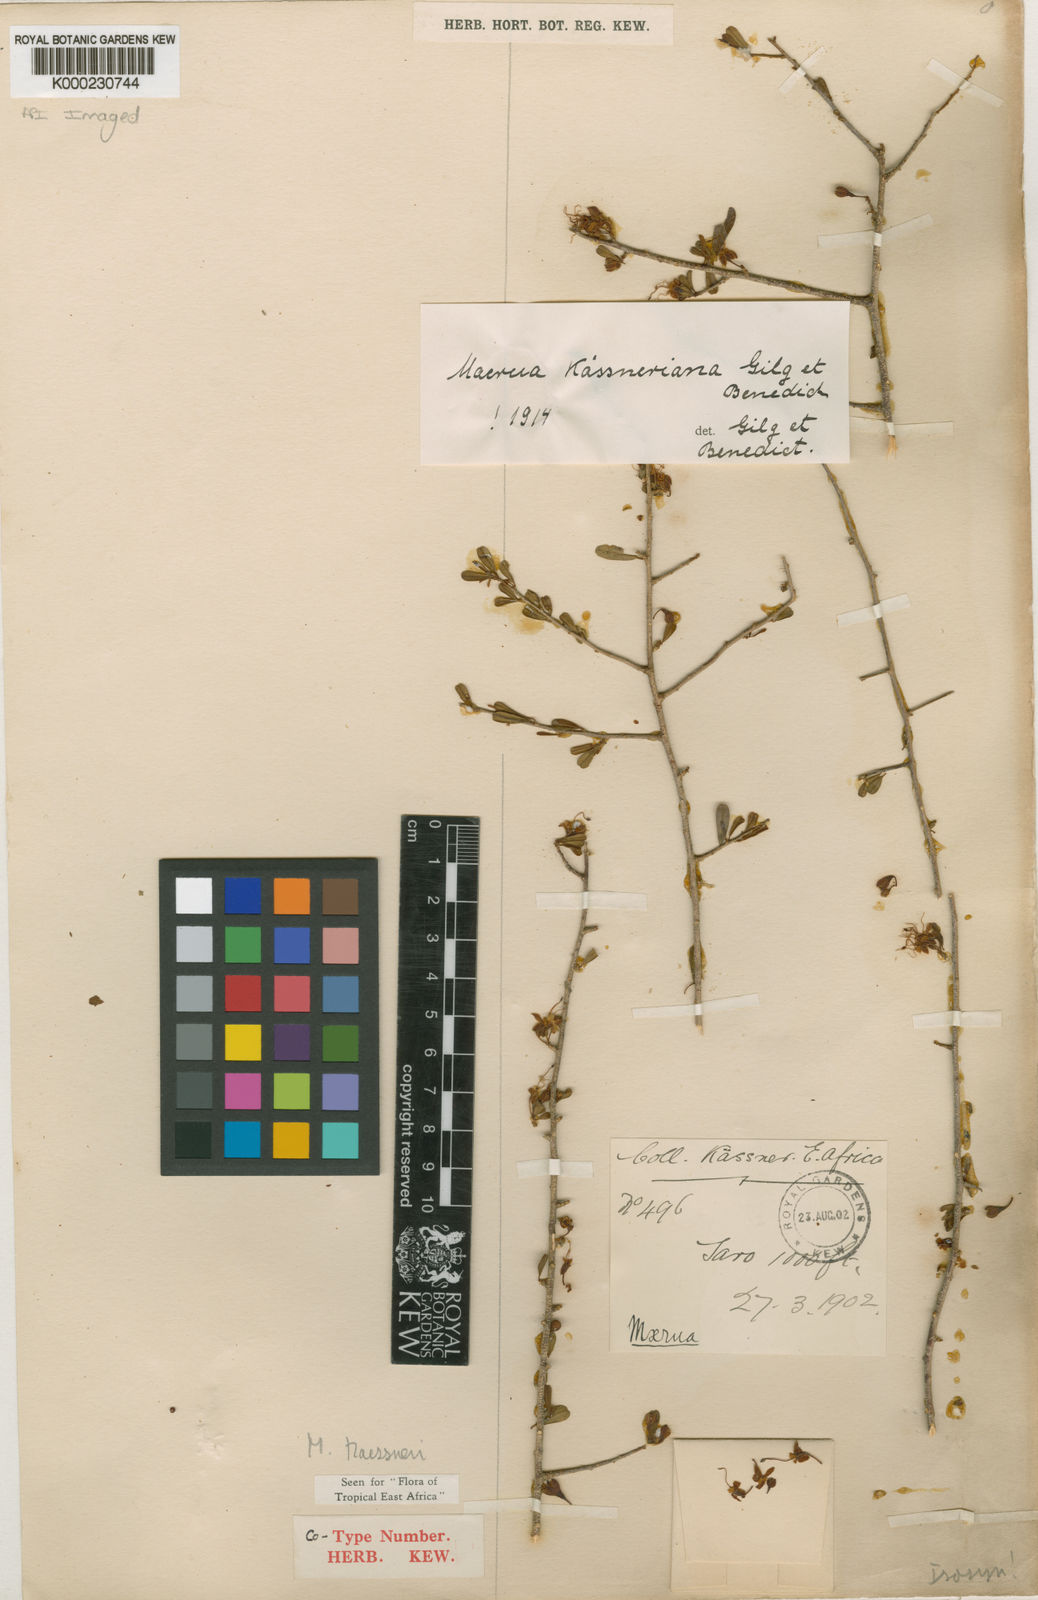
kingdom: Plantae
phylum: Tracheophyta
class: Magnoliopsida
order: Brassicales
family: Capparaceae
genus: Maerua
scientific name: Maerua kaessneri
